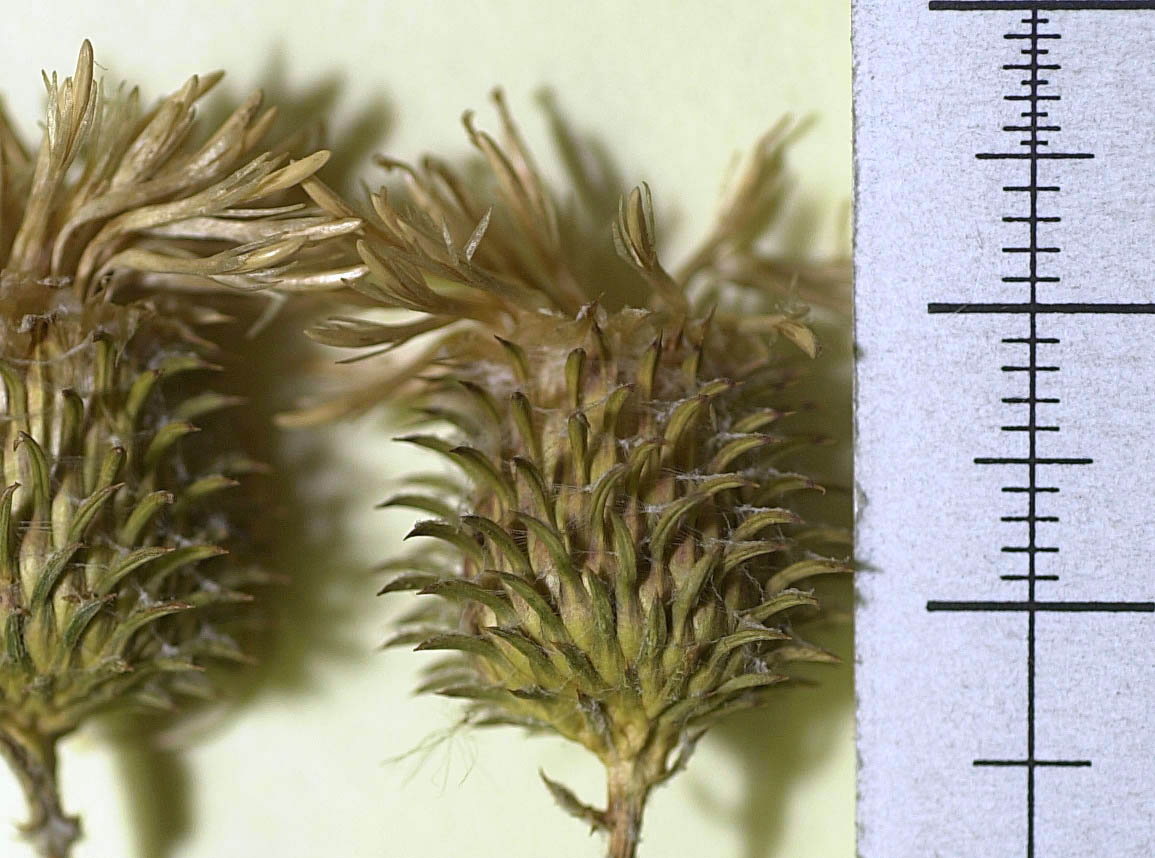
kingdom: Plantae
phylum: Tracheophyta
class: Magnoliopsida
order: Asterales
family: Asteraceae
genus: Cousinia
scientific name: Cousinia panjshirensis
